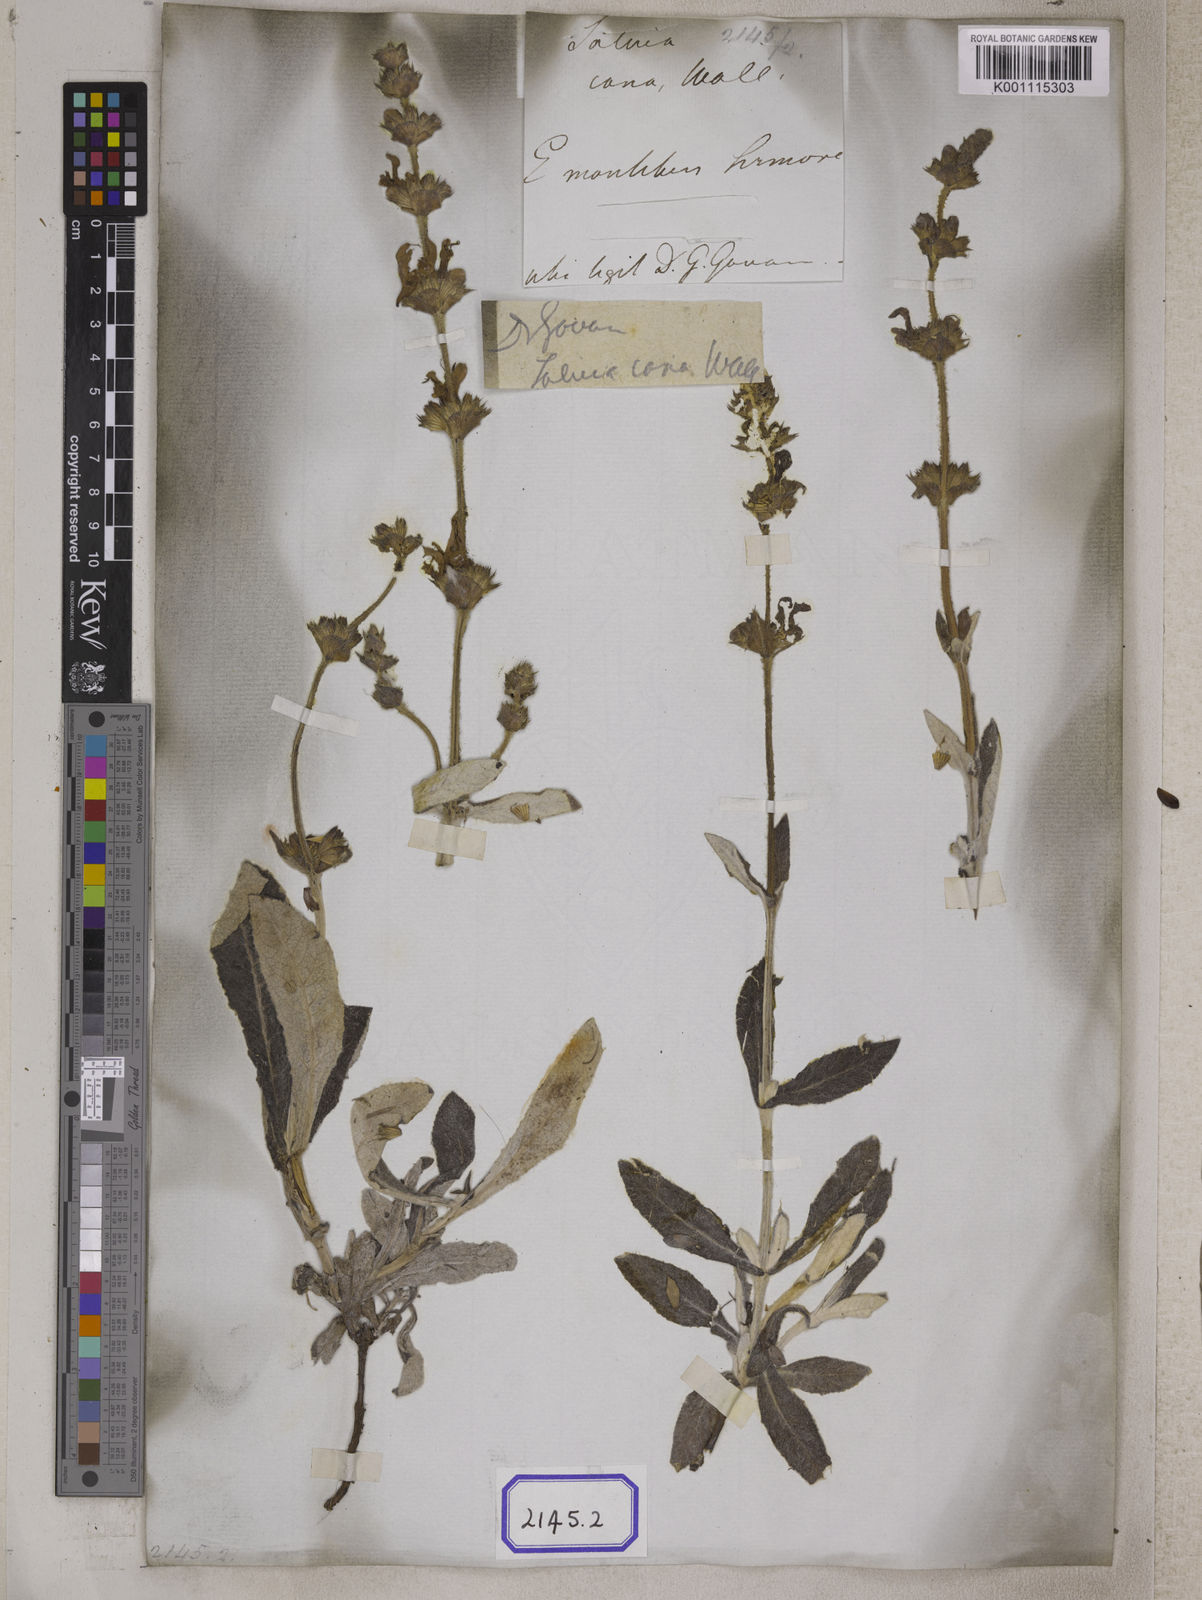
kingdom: Plantae
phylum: Tracheophyta
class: Magnoliopsida
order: Lamiales
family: Lamiaceae
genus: Salvia
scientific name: Salvia
